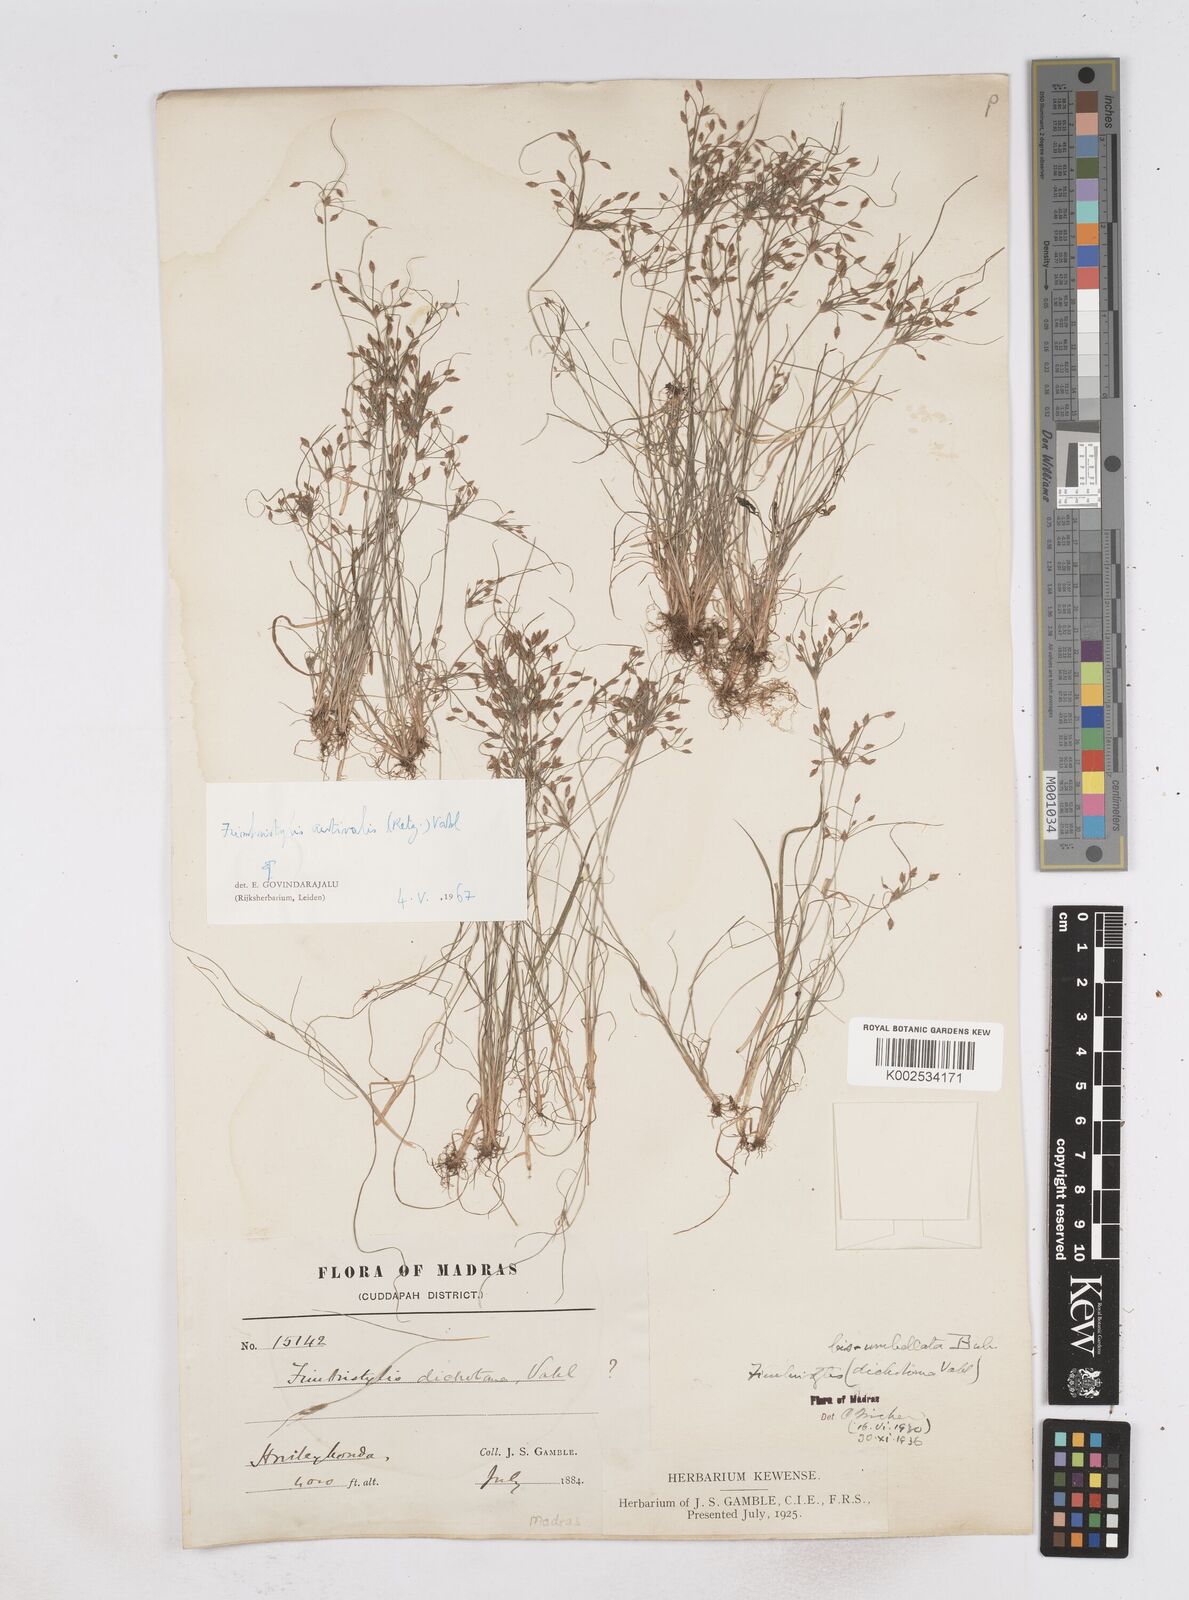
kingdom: Plantae
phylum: Tracheophyta
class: Liliopsida
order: Poales
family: Cyperaceae
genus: Fimbristylis
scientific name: Fimbristylis aestivalis
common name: Summer fimbry
